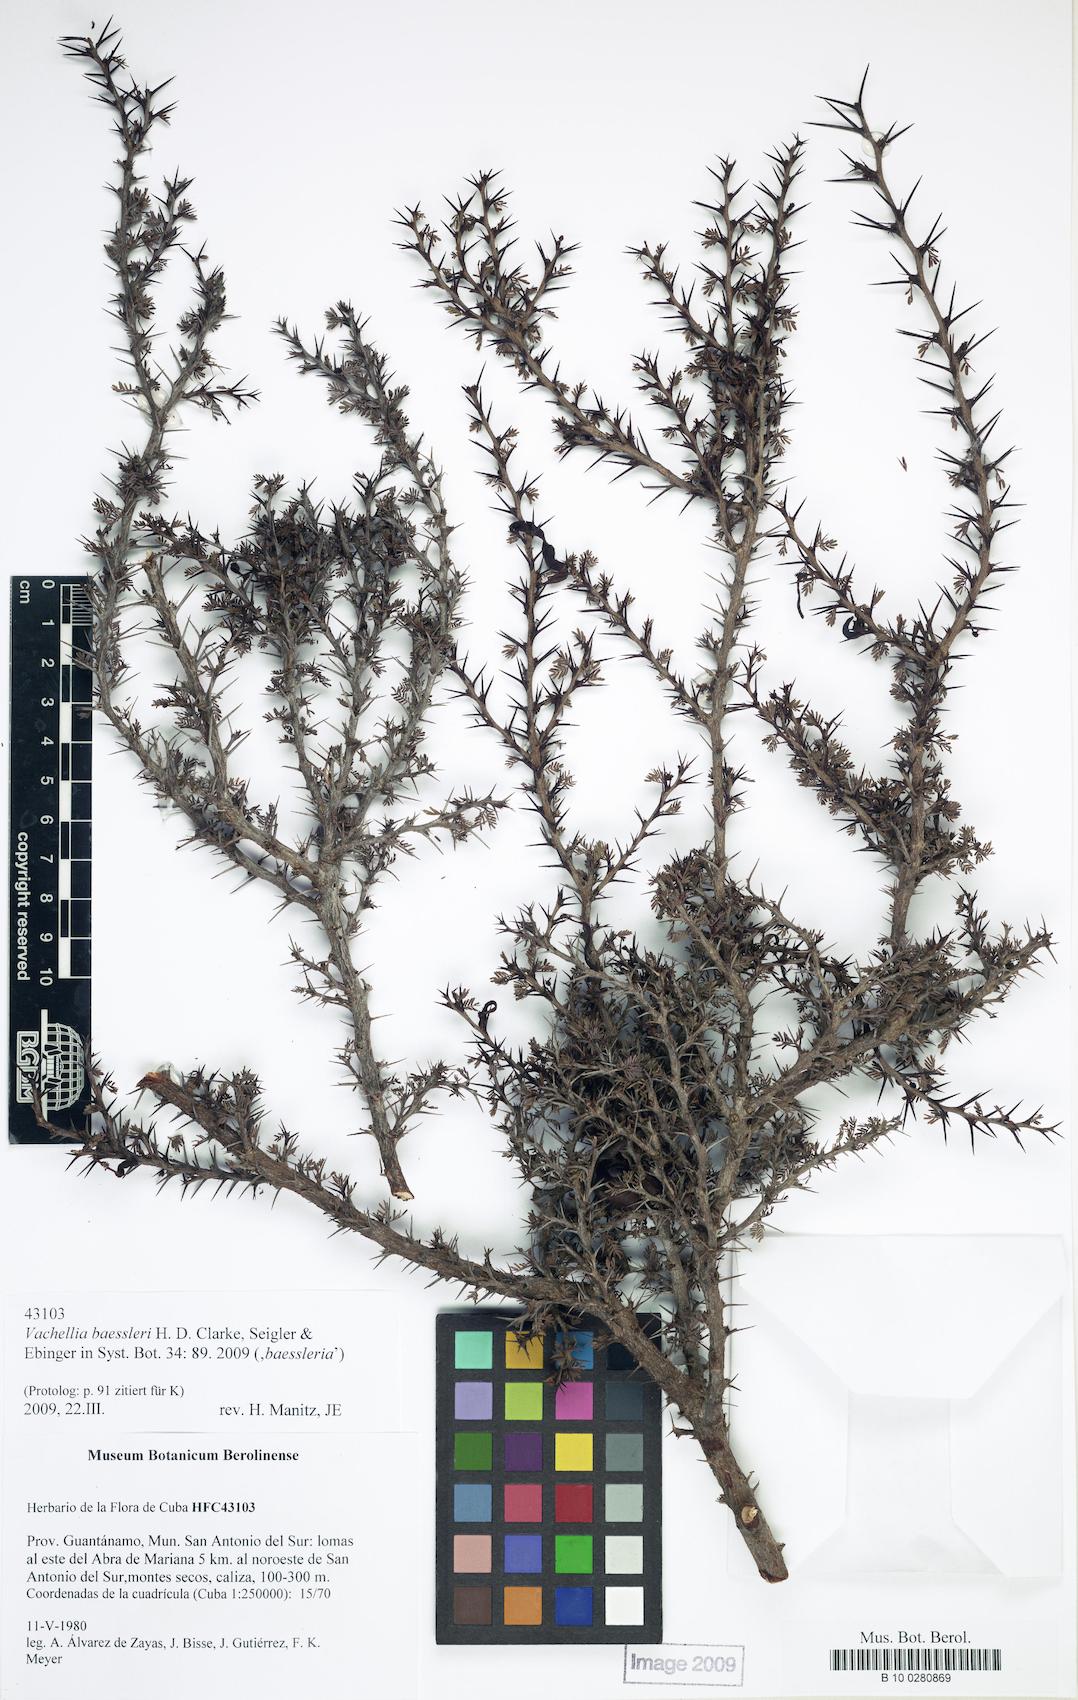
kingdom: Plantae
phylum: Tracheophyta
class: Magnoliopsida
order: Fabales
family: Fabaceae
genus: Vachellia
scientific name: Vachellia baessleri
